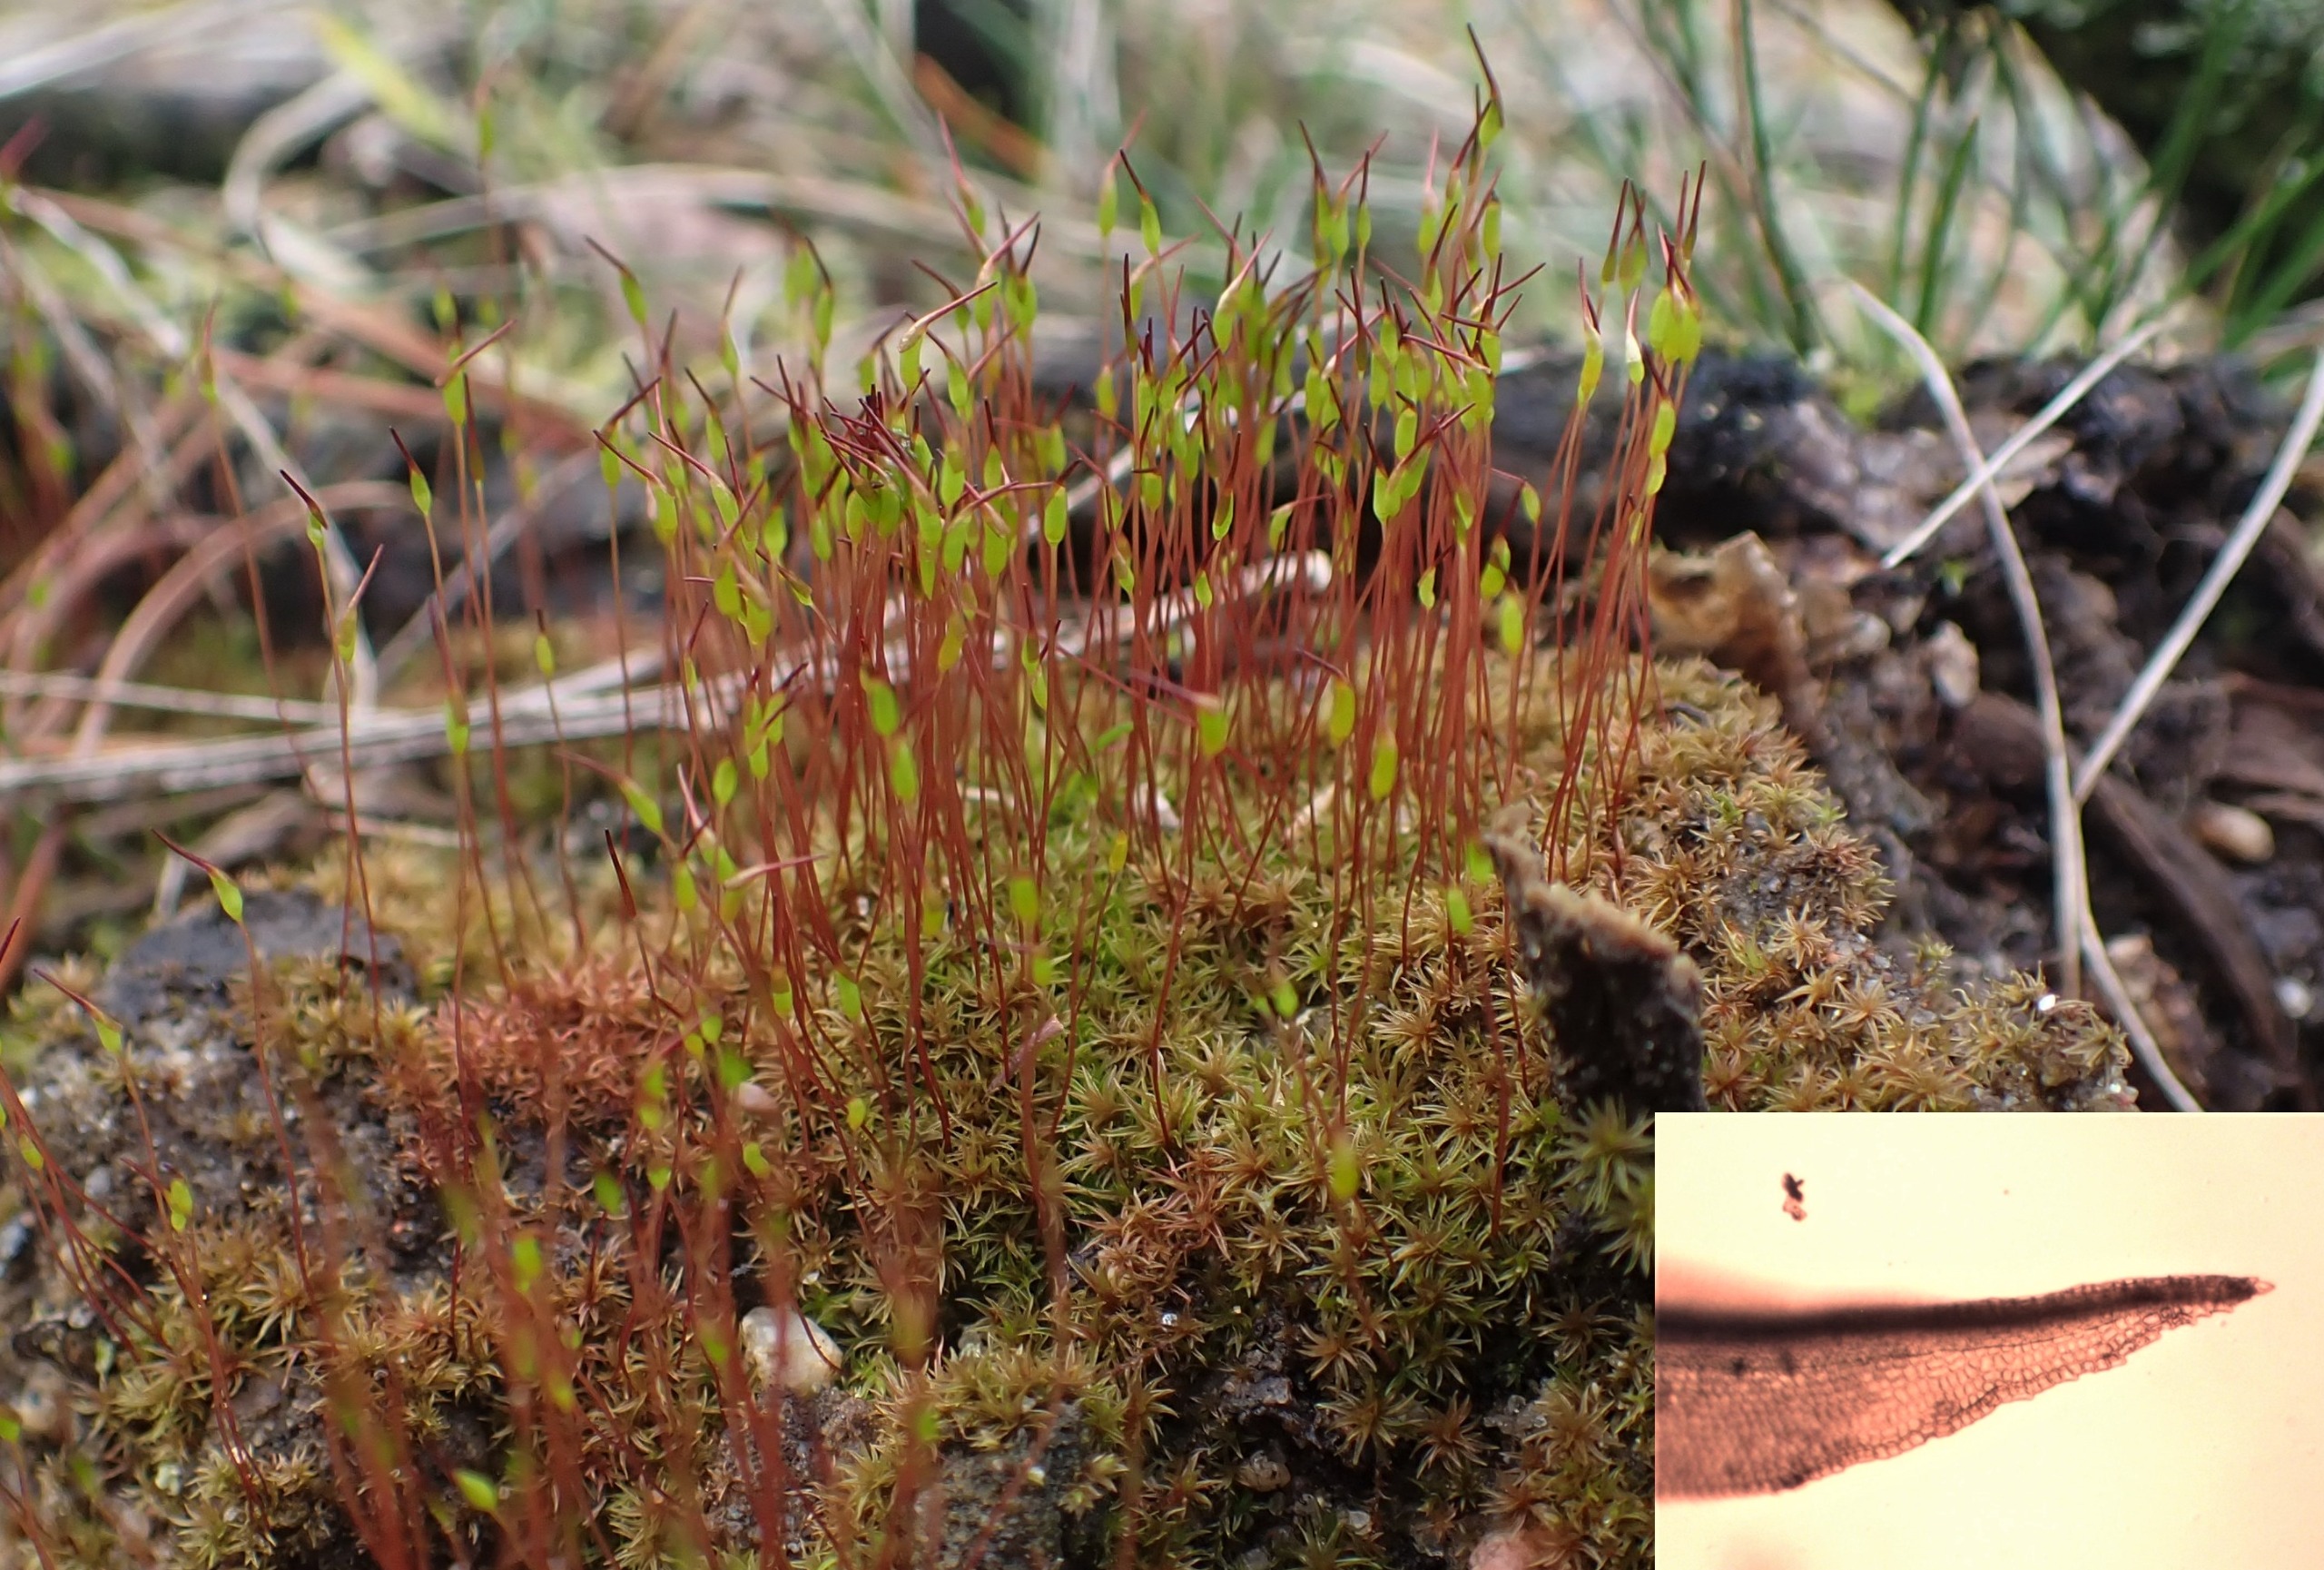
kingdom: Plantae
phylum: Bryophyta
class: Bryopsida
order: Dicranales
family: Ditrichaceae
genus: Ceratodon
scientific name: Ceratodon purpureus
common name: Rød horntand
